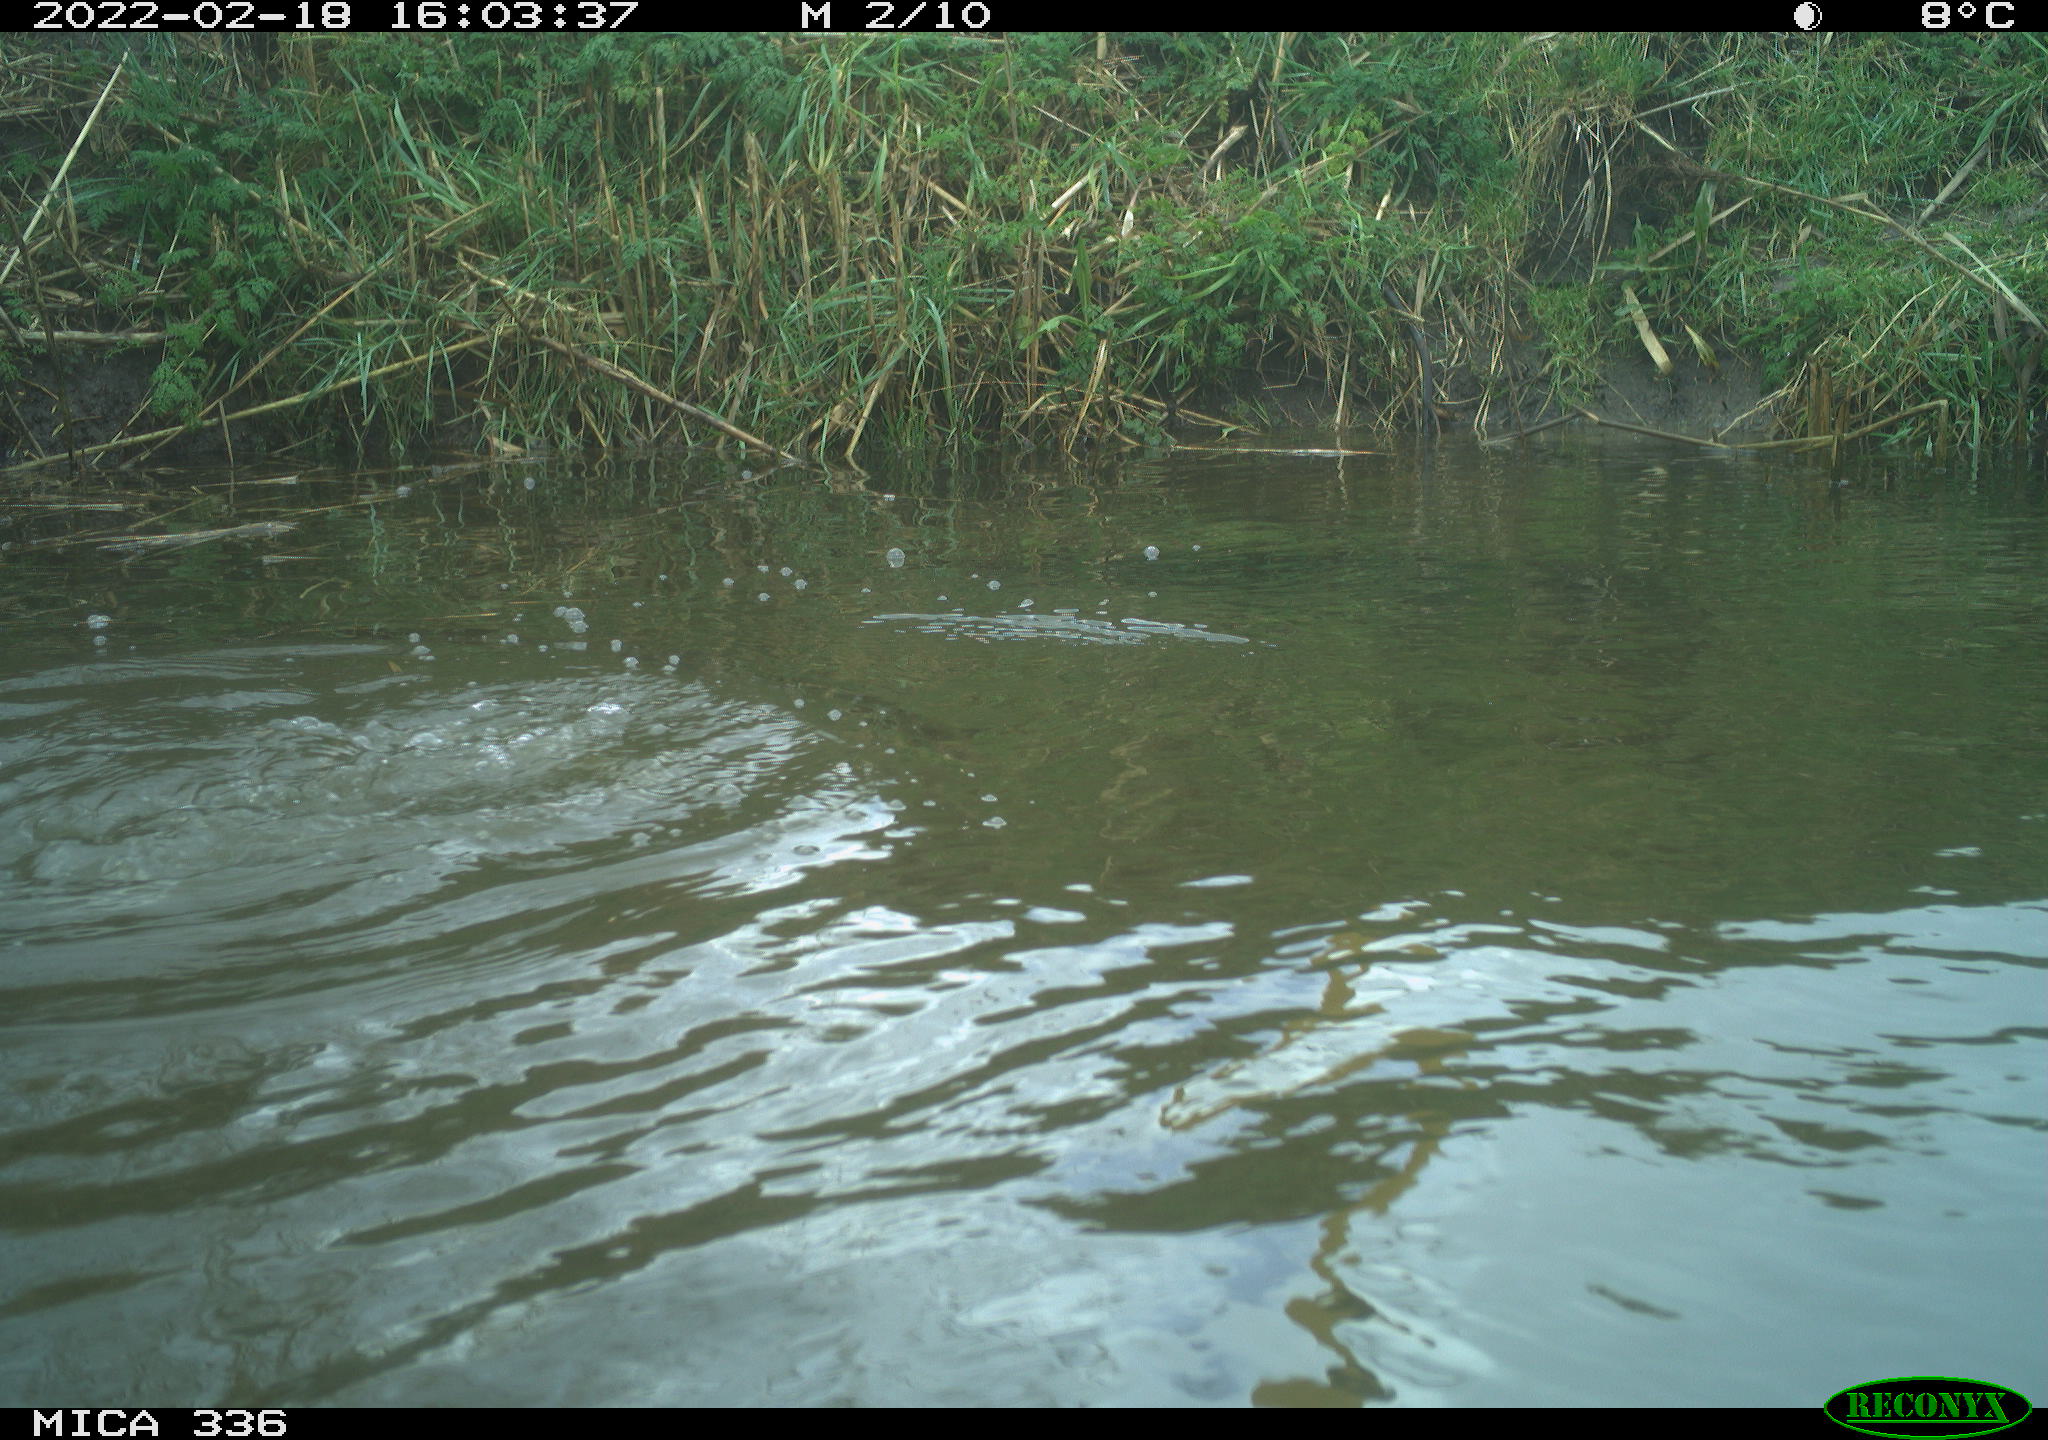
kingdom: Animalia
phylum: Chordata
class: Aves
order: Suliformes
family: Phalacrocoracidae
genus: Phalacrocorax
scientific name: Phalacrocorax carbo
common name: Great cormorant
